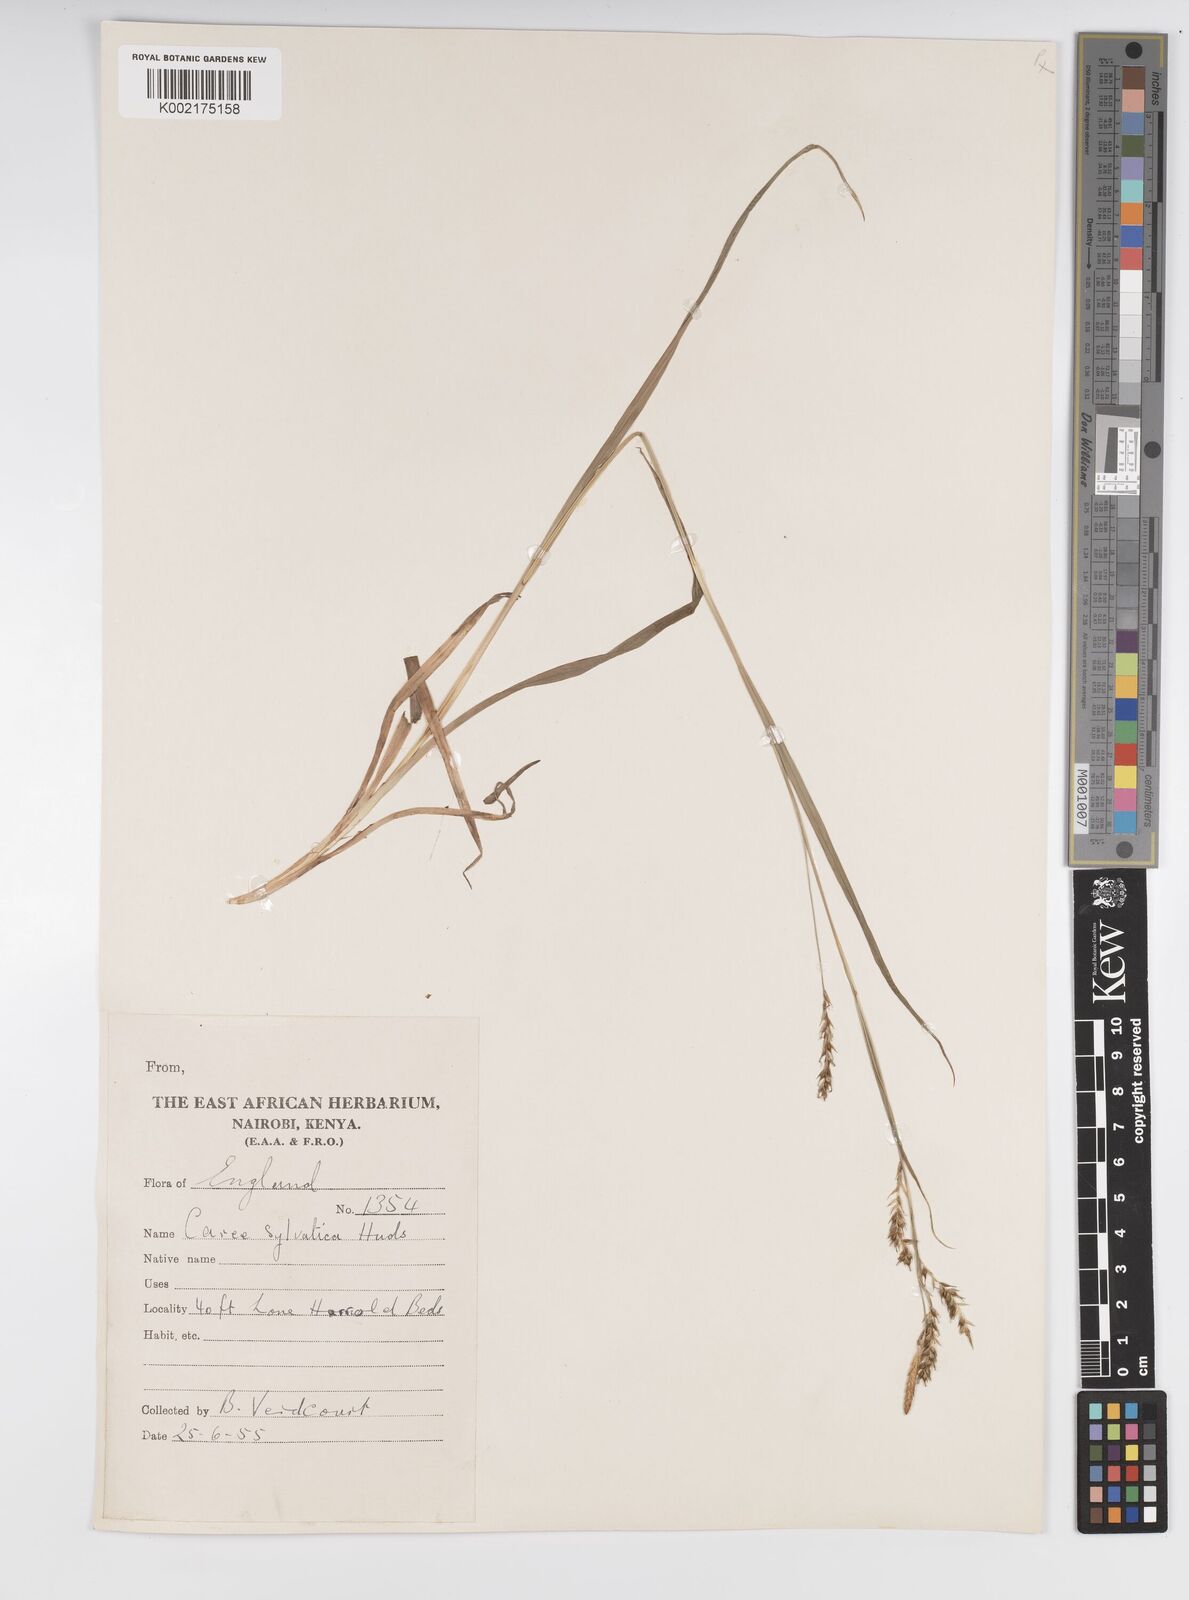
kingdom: Plantae
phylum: Tracheophyta
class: Liliopsida
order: Poales
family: Cyperaceae
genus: Carex
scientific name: Carex sylvatica
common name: Wood-sedge
